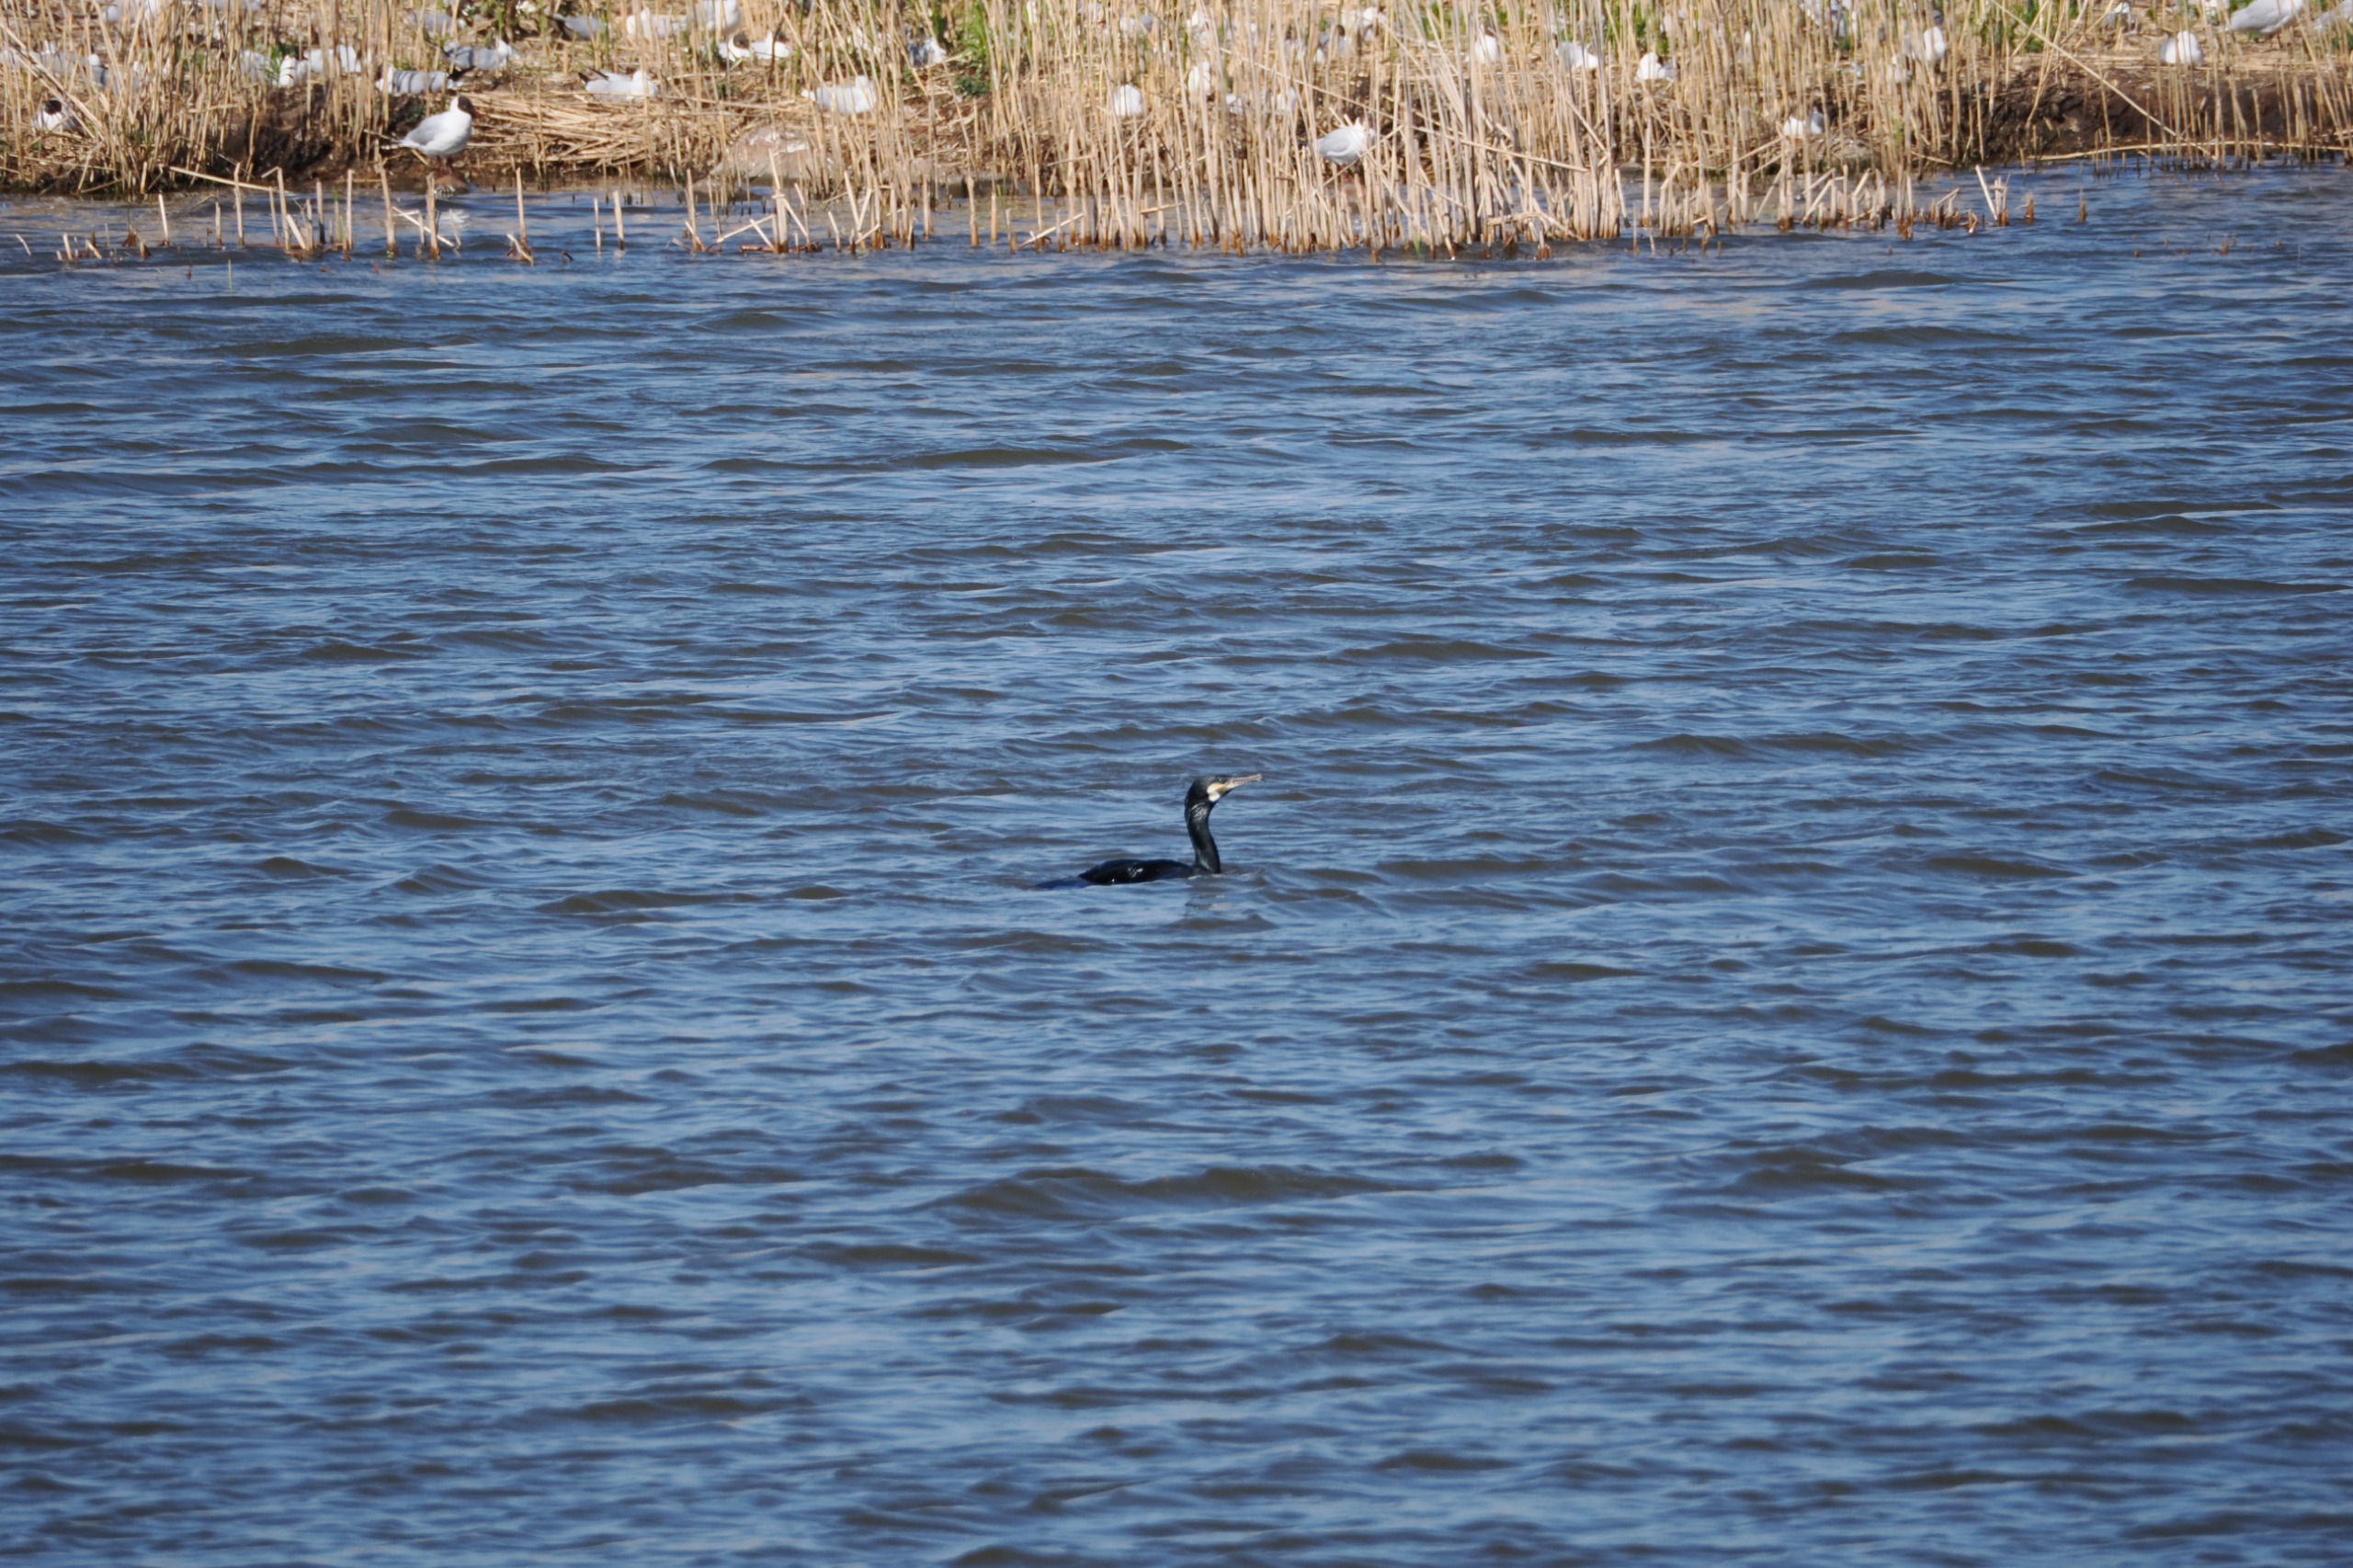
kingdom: Animalia
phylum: Chordata
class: Aves
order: Suliformes
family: Phalacrocoracidae
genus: Phalacrocorax
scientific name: Phalacrocorax carbo
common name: Skarv
